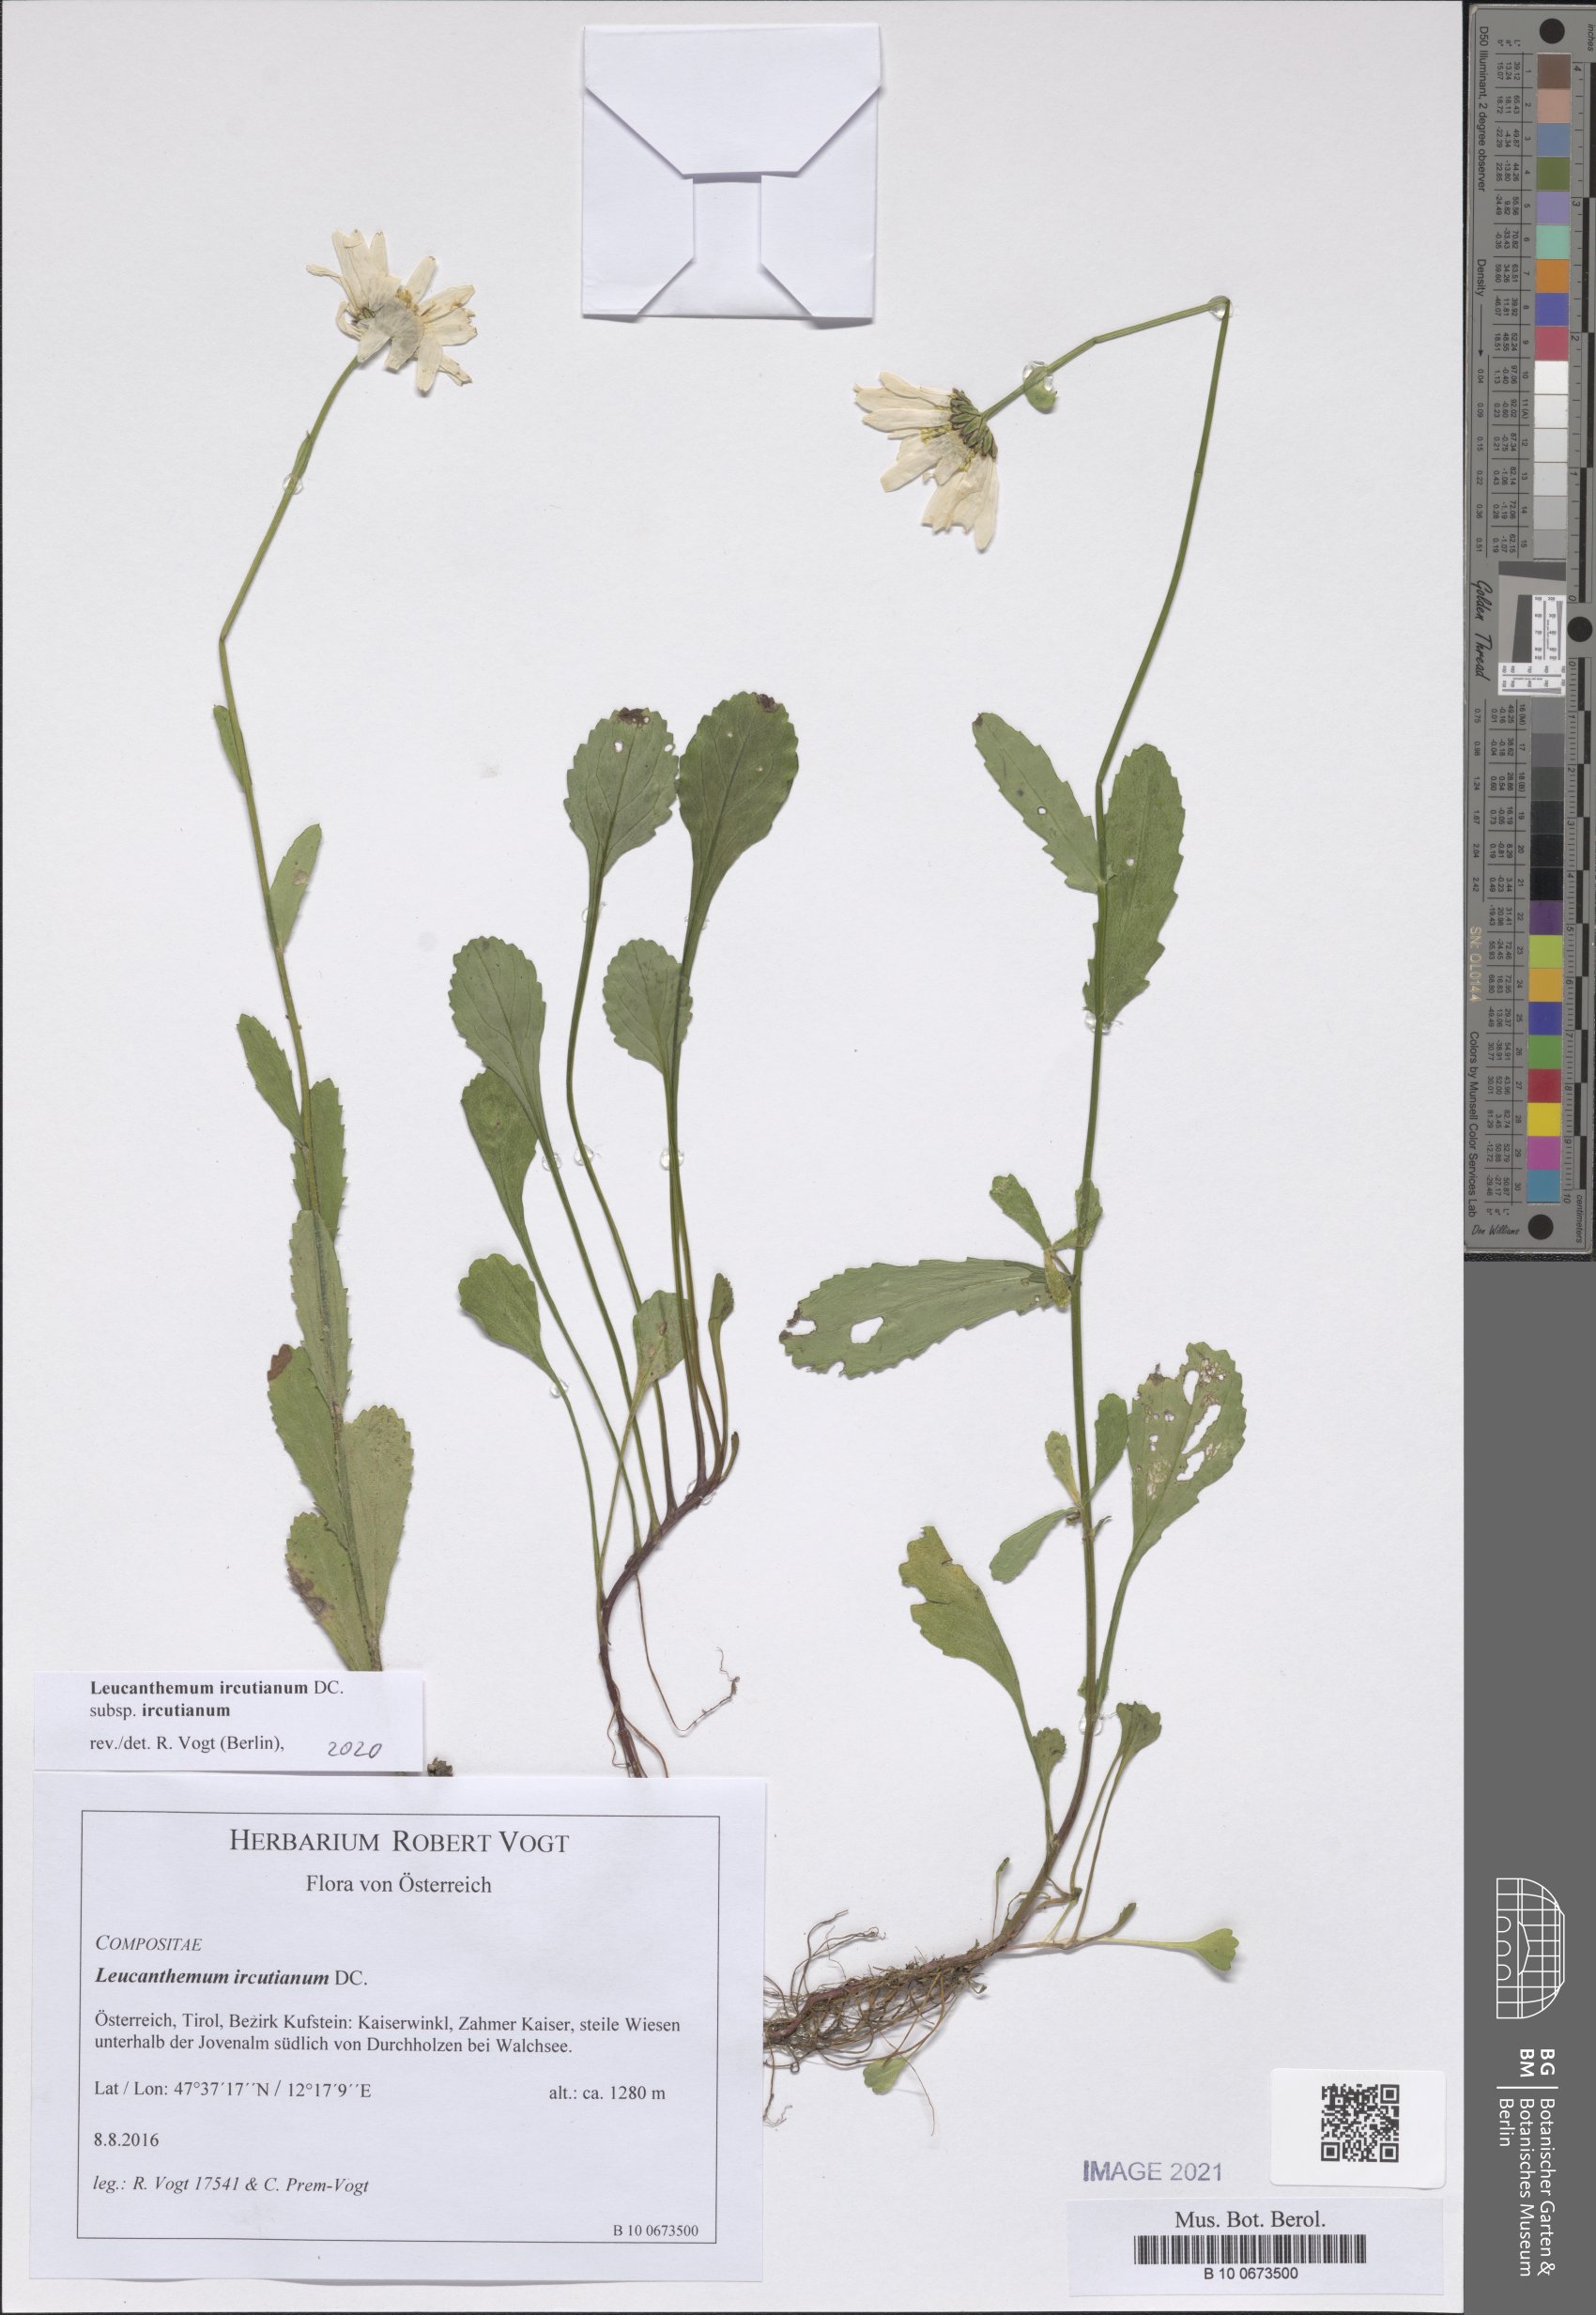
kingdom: Plantae
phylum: Tracheophyta
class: Magnoliopsida
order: Asterales
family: Asteraceae
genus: Leucanthemum
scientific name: Leucanthemum ircutianum
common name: Daisy
